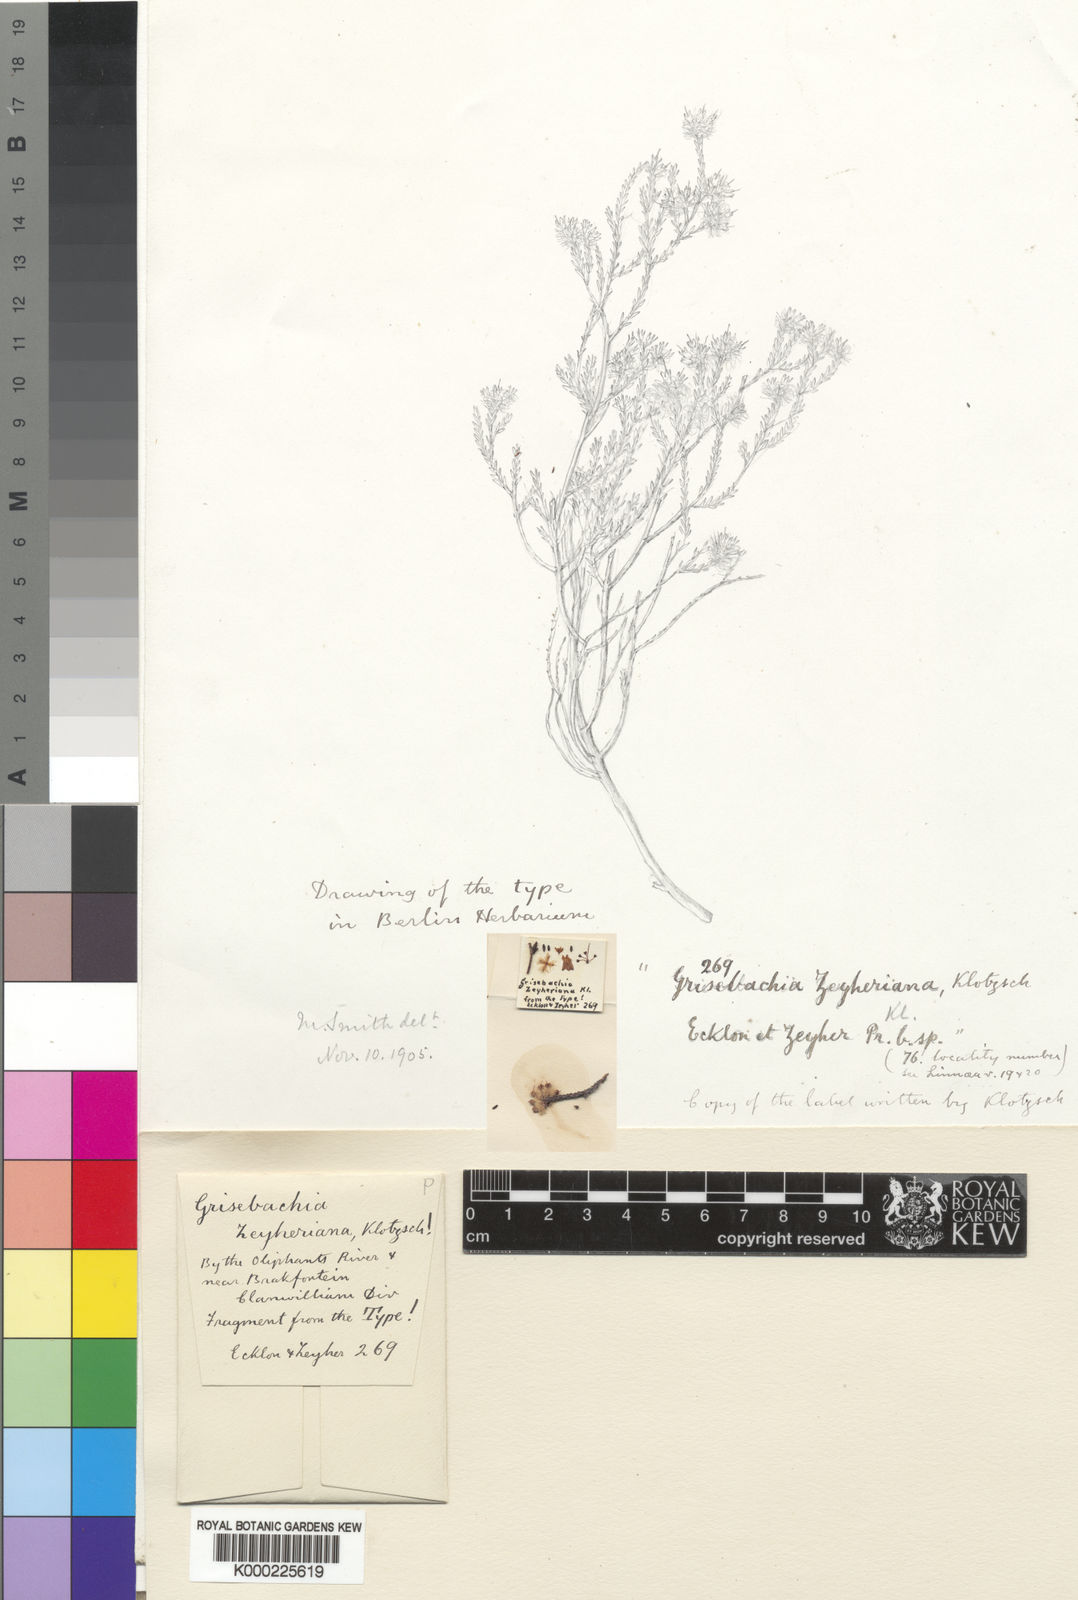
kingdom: Plantae
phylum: Tracheophyta
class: Magnoliopsida
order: Ericales
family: Ericaceae
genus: Erica
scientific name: Erica plumosa
